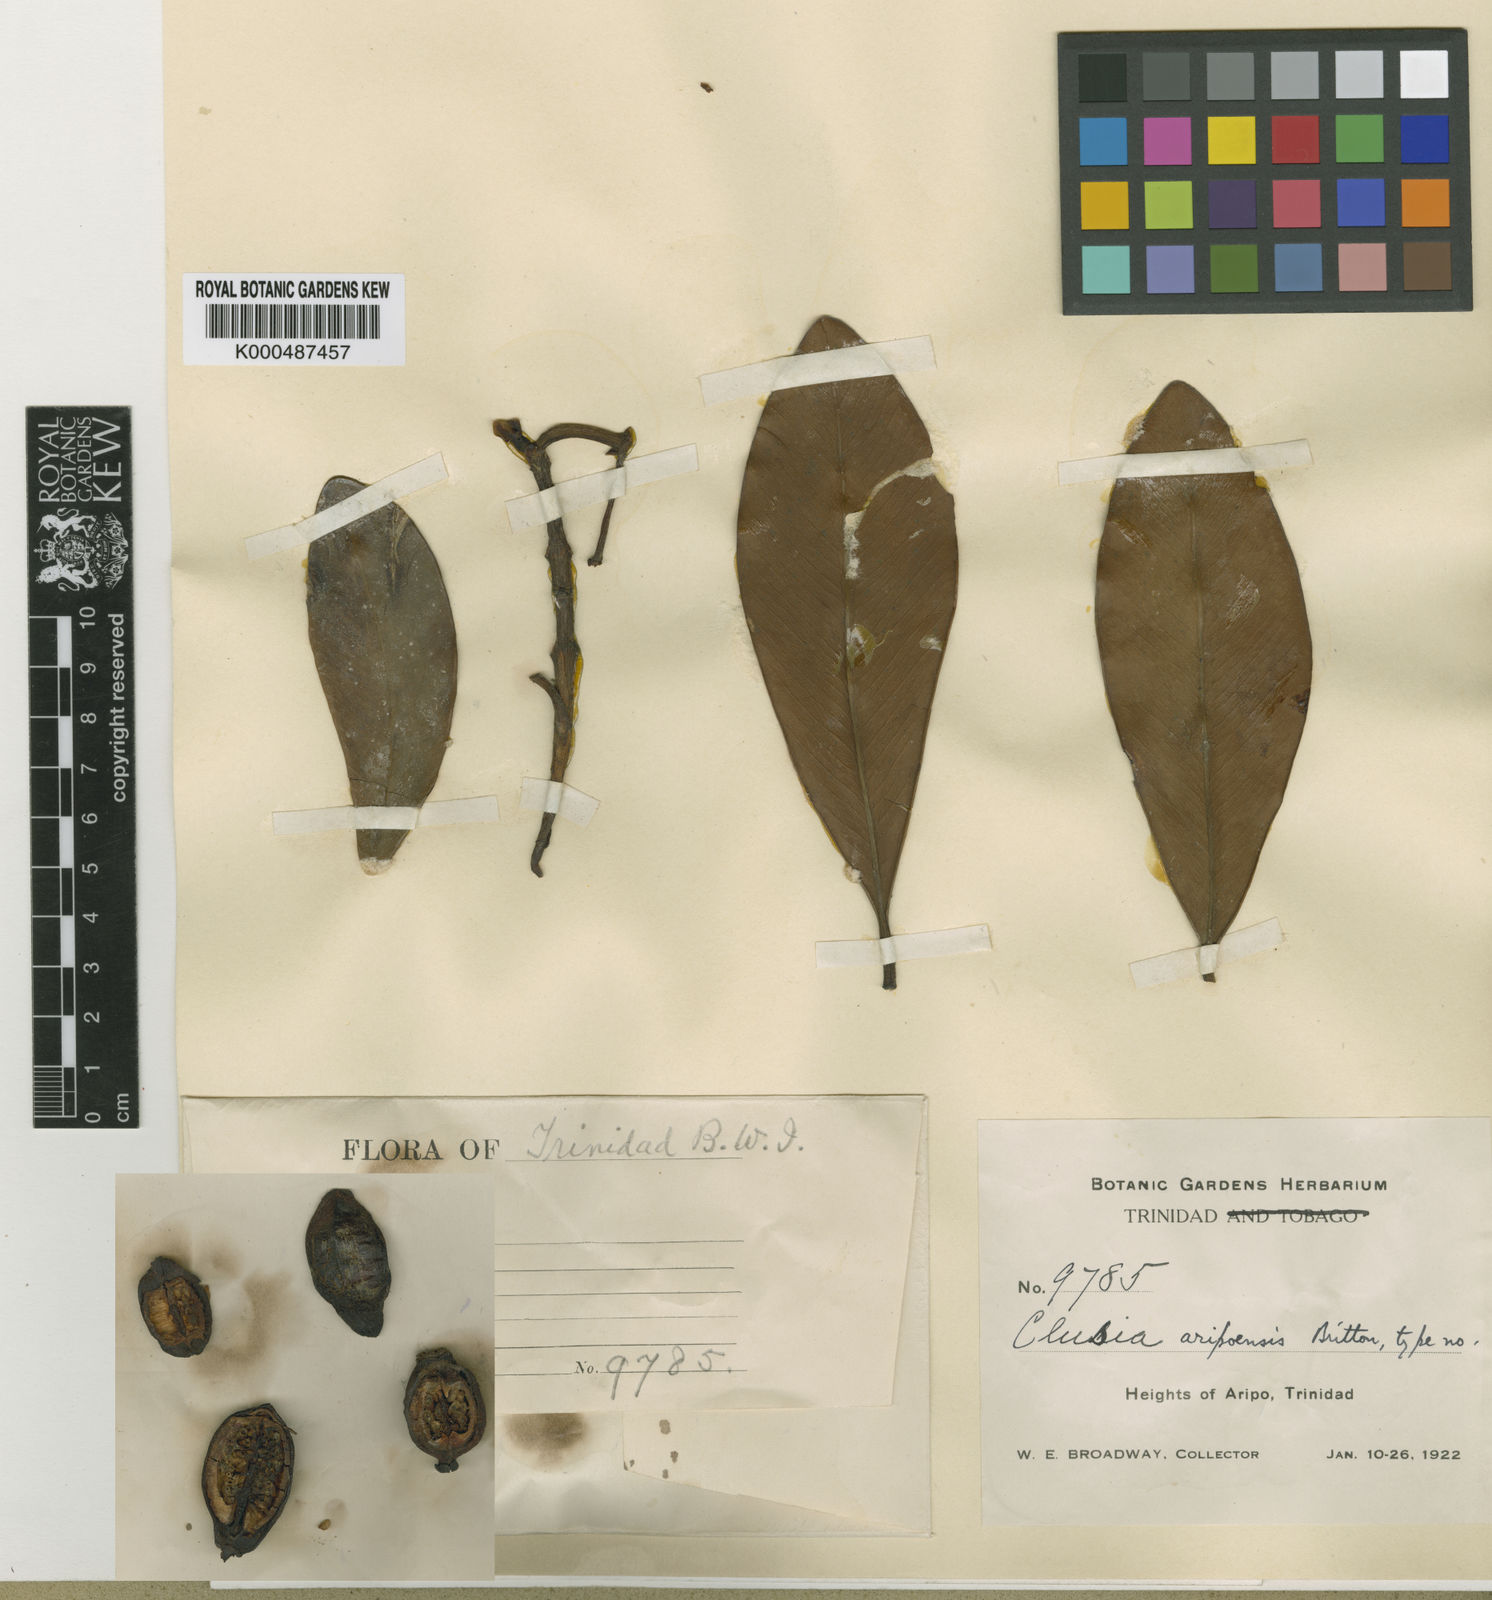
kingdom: Plantae
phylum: Tracheophyta
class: Magnoliopsida
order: Malpighiales
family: Clusiaceae
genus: Clusia
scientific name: Clusia aripoensis
